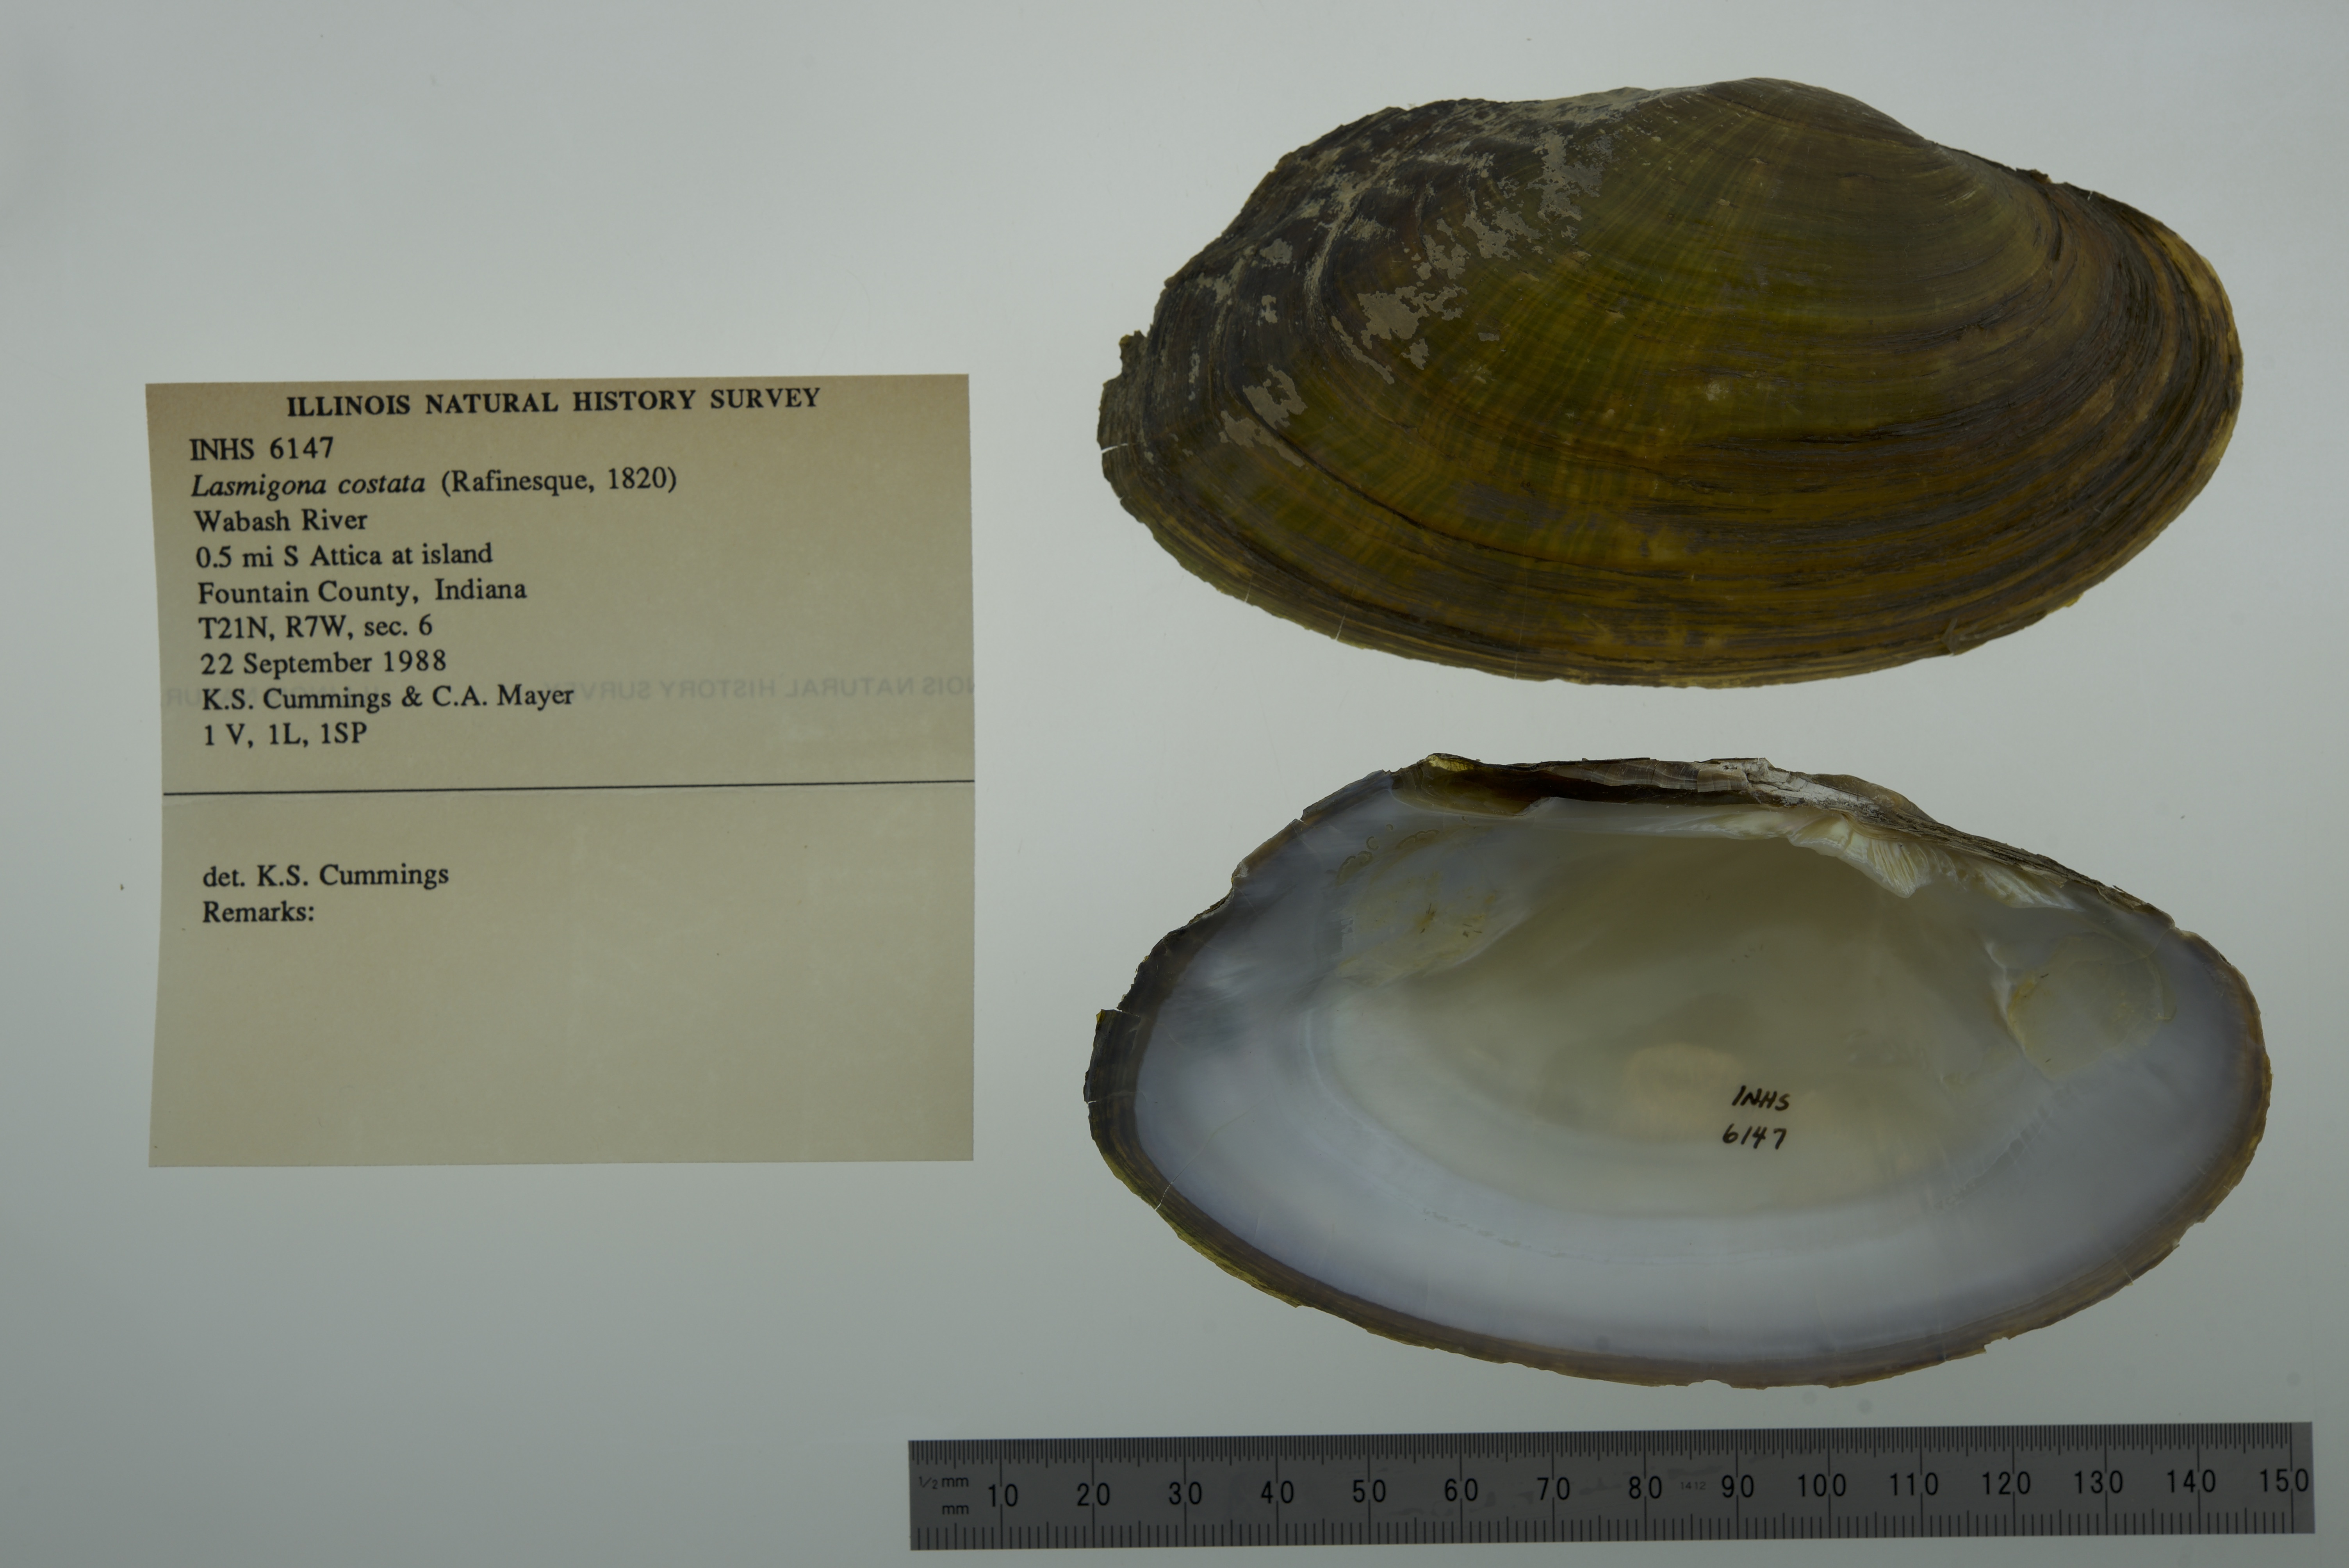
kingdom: Animalia
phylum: Mollusca
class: Bivalvia
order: Unionida
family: Unionidae
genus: Lasmigona
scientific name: Lasmigona costata
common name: Flutedshell
